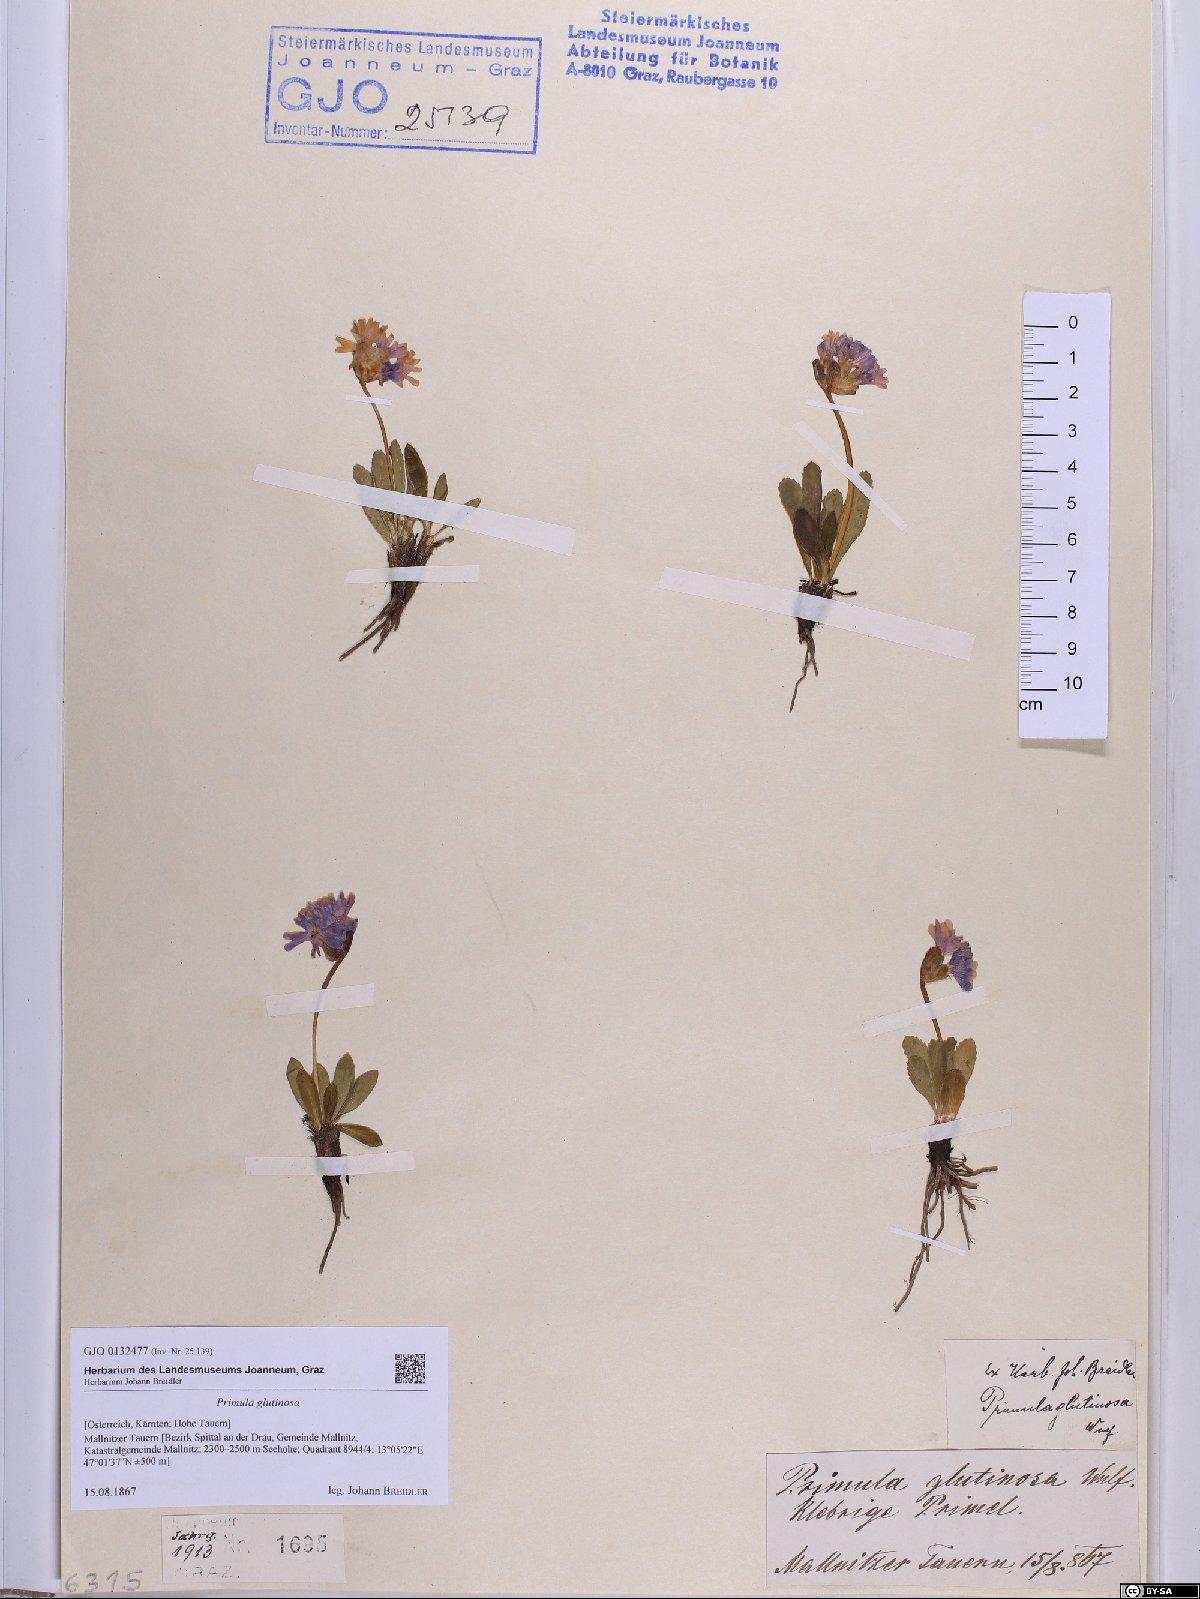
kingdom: Plantae
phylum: Tracheophyta
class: Magnoliopsida
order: Ericales
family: Primulaceae
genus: Primula
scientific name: Primula glutinosa
